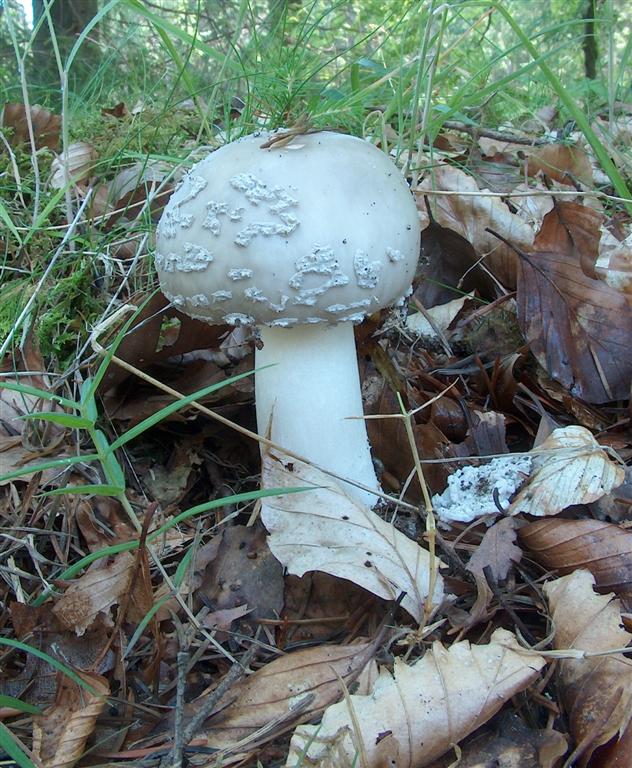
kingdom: Fungi
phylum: Basidiomycota
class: Agaricomycetes
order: Agaricales
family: Amanitaceae
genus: Amanita
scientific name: Amanita
